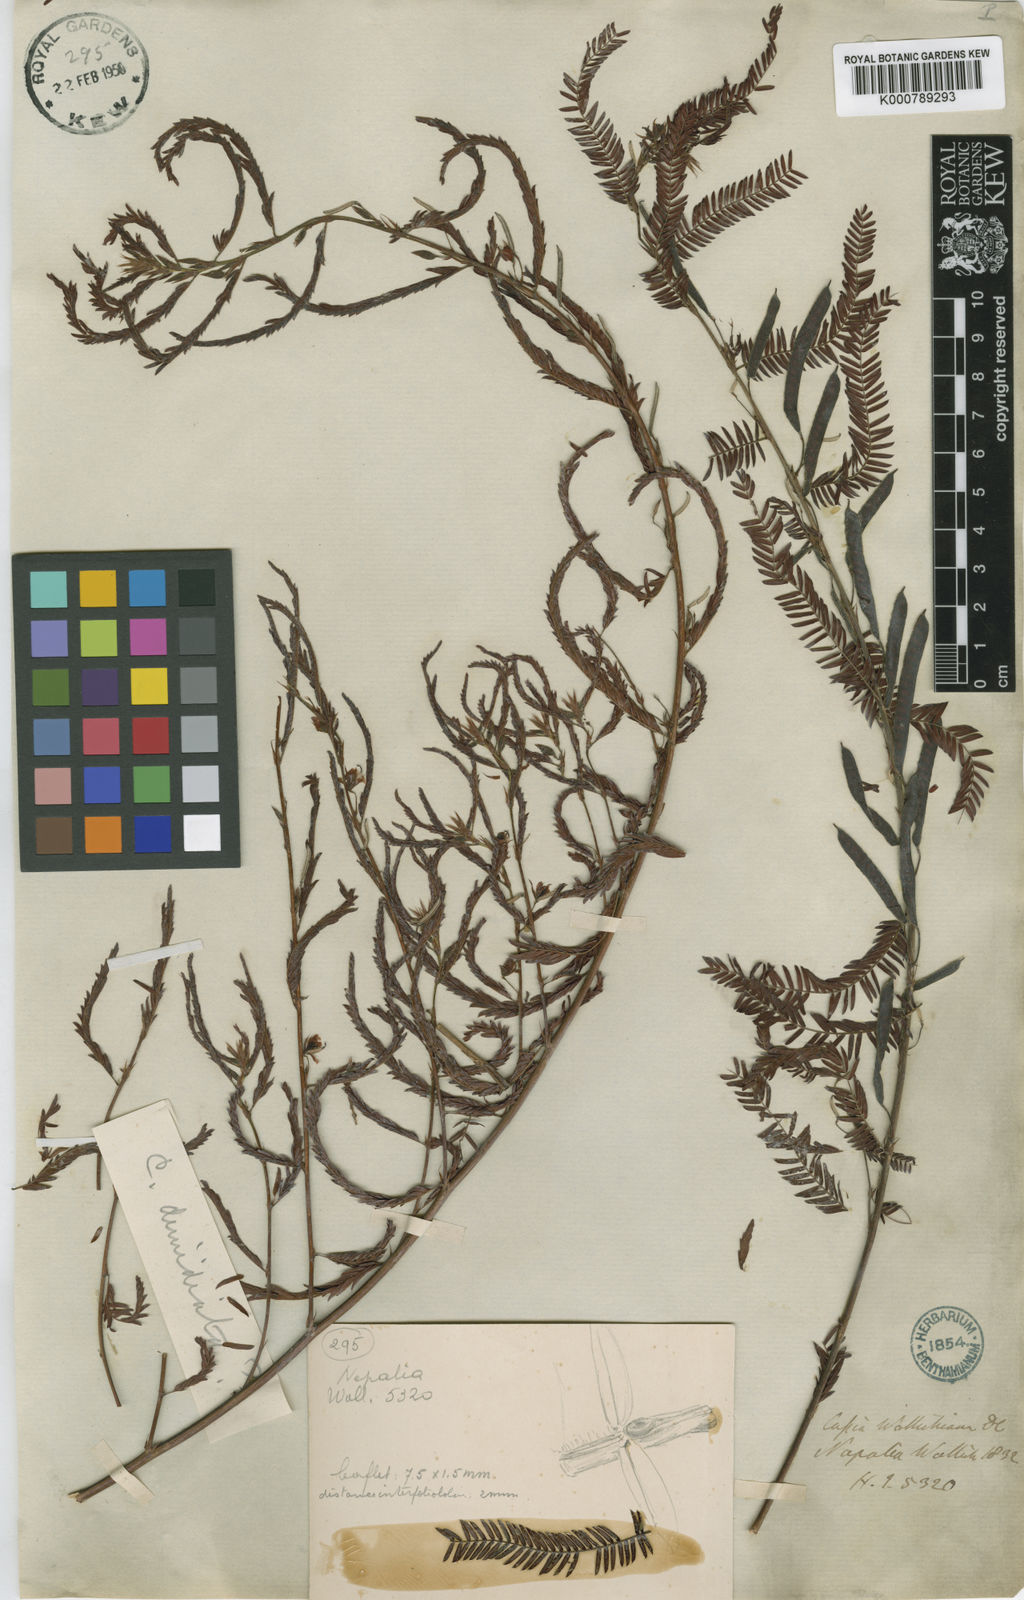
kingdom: Plantae
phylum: Tracheophyta
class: Magnoliopsida
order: Fabales
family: Fabaceae
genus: Chamaecrista
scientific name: Chamaecrista wallichiana
